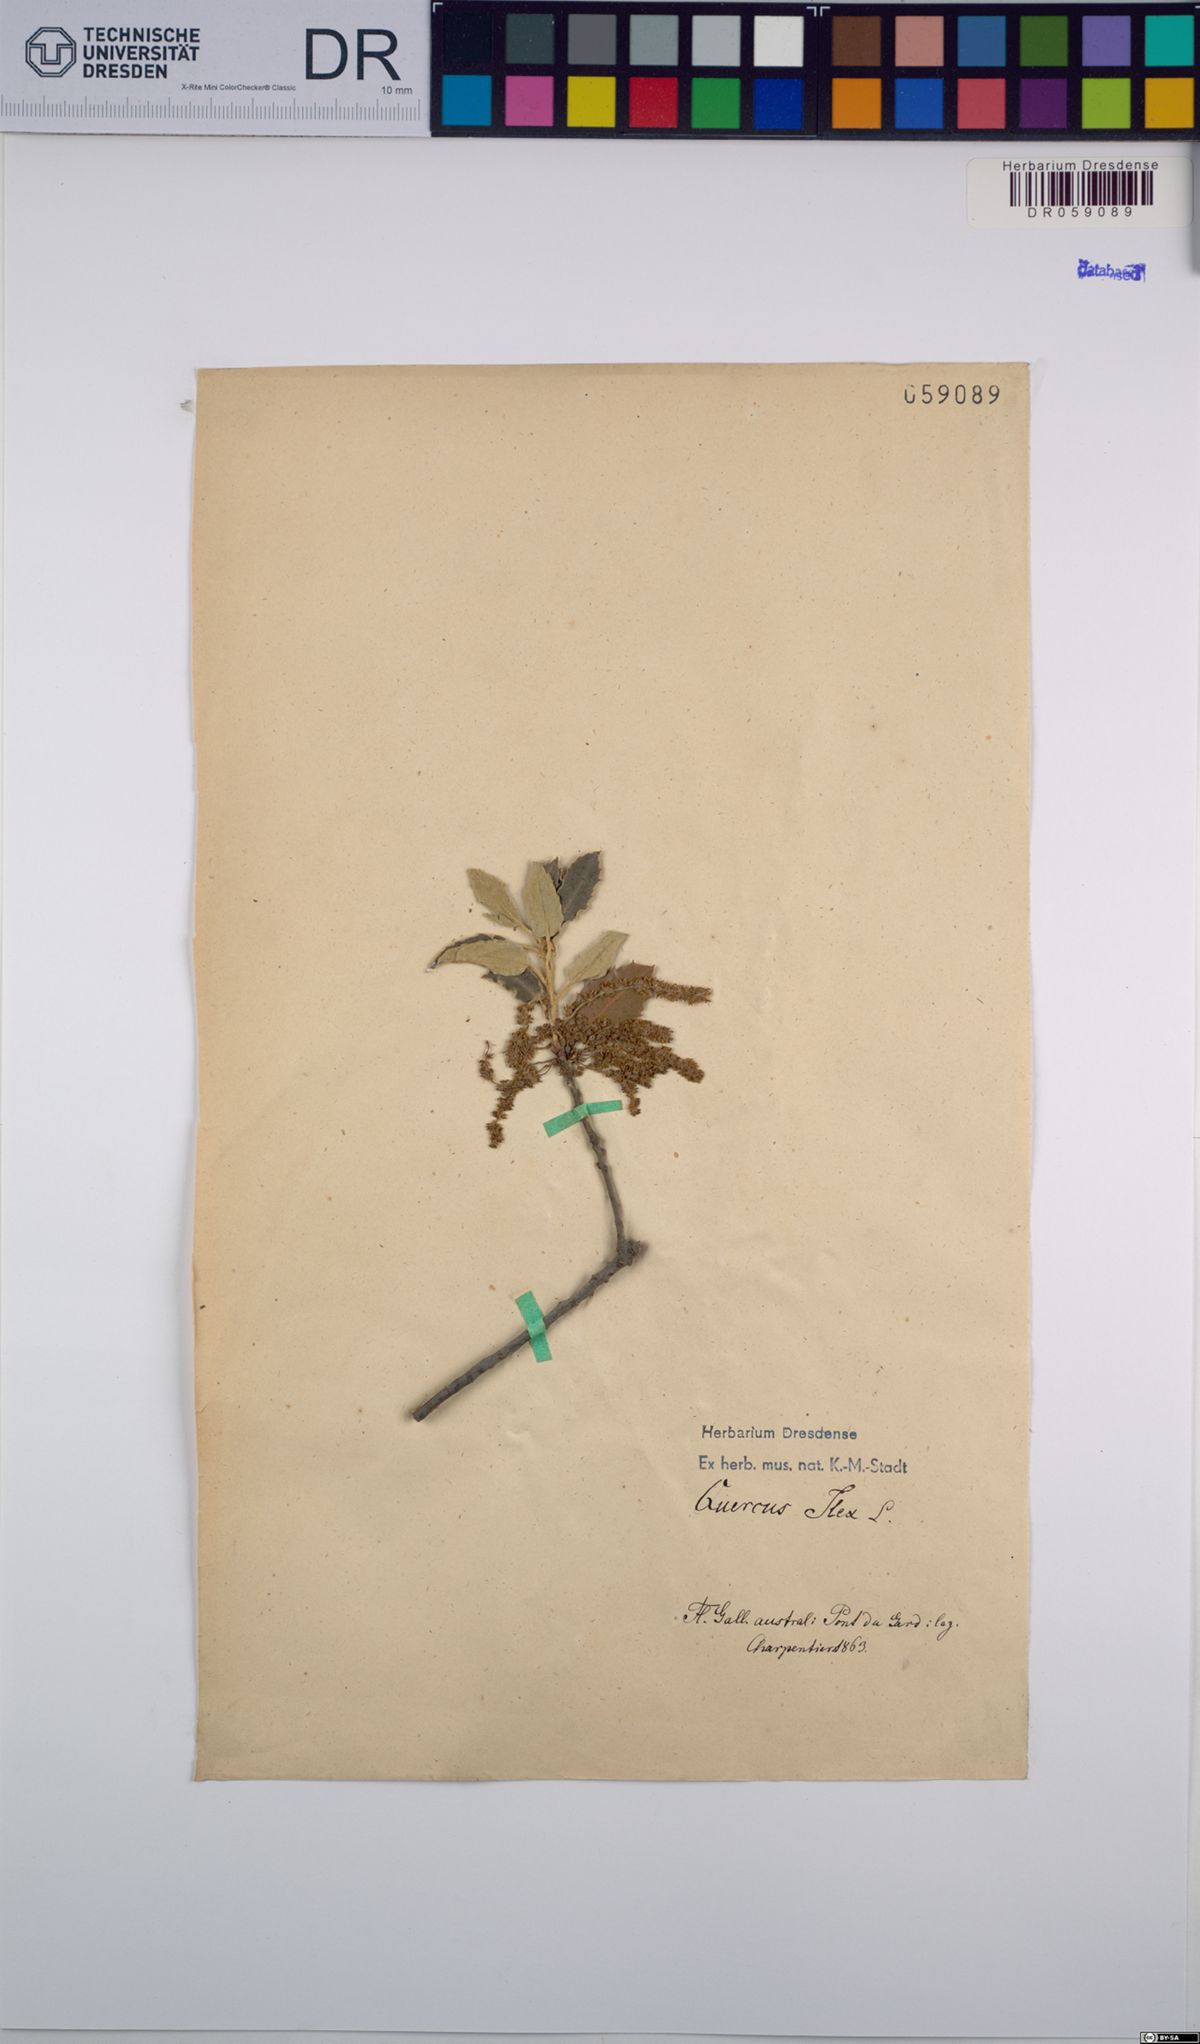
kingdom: Plantae
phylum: Tracheophyta
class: Magnoliopsida
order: Fagales
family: Fagaceae
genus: Quercus
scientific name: Quercus ilex
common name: Evergreen oak
